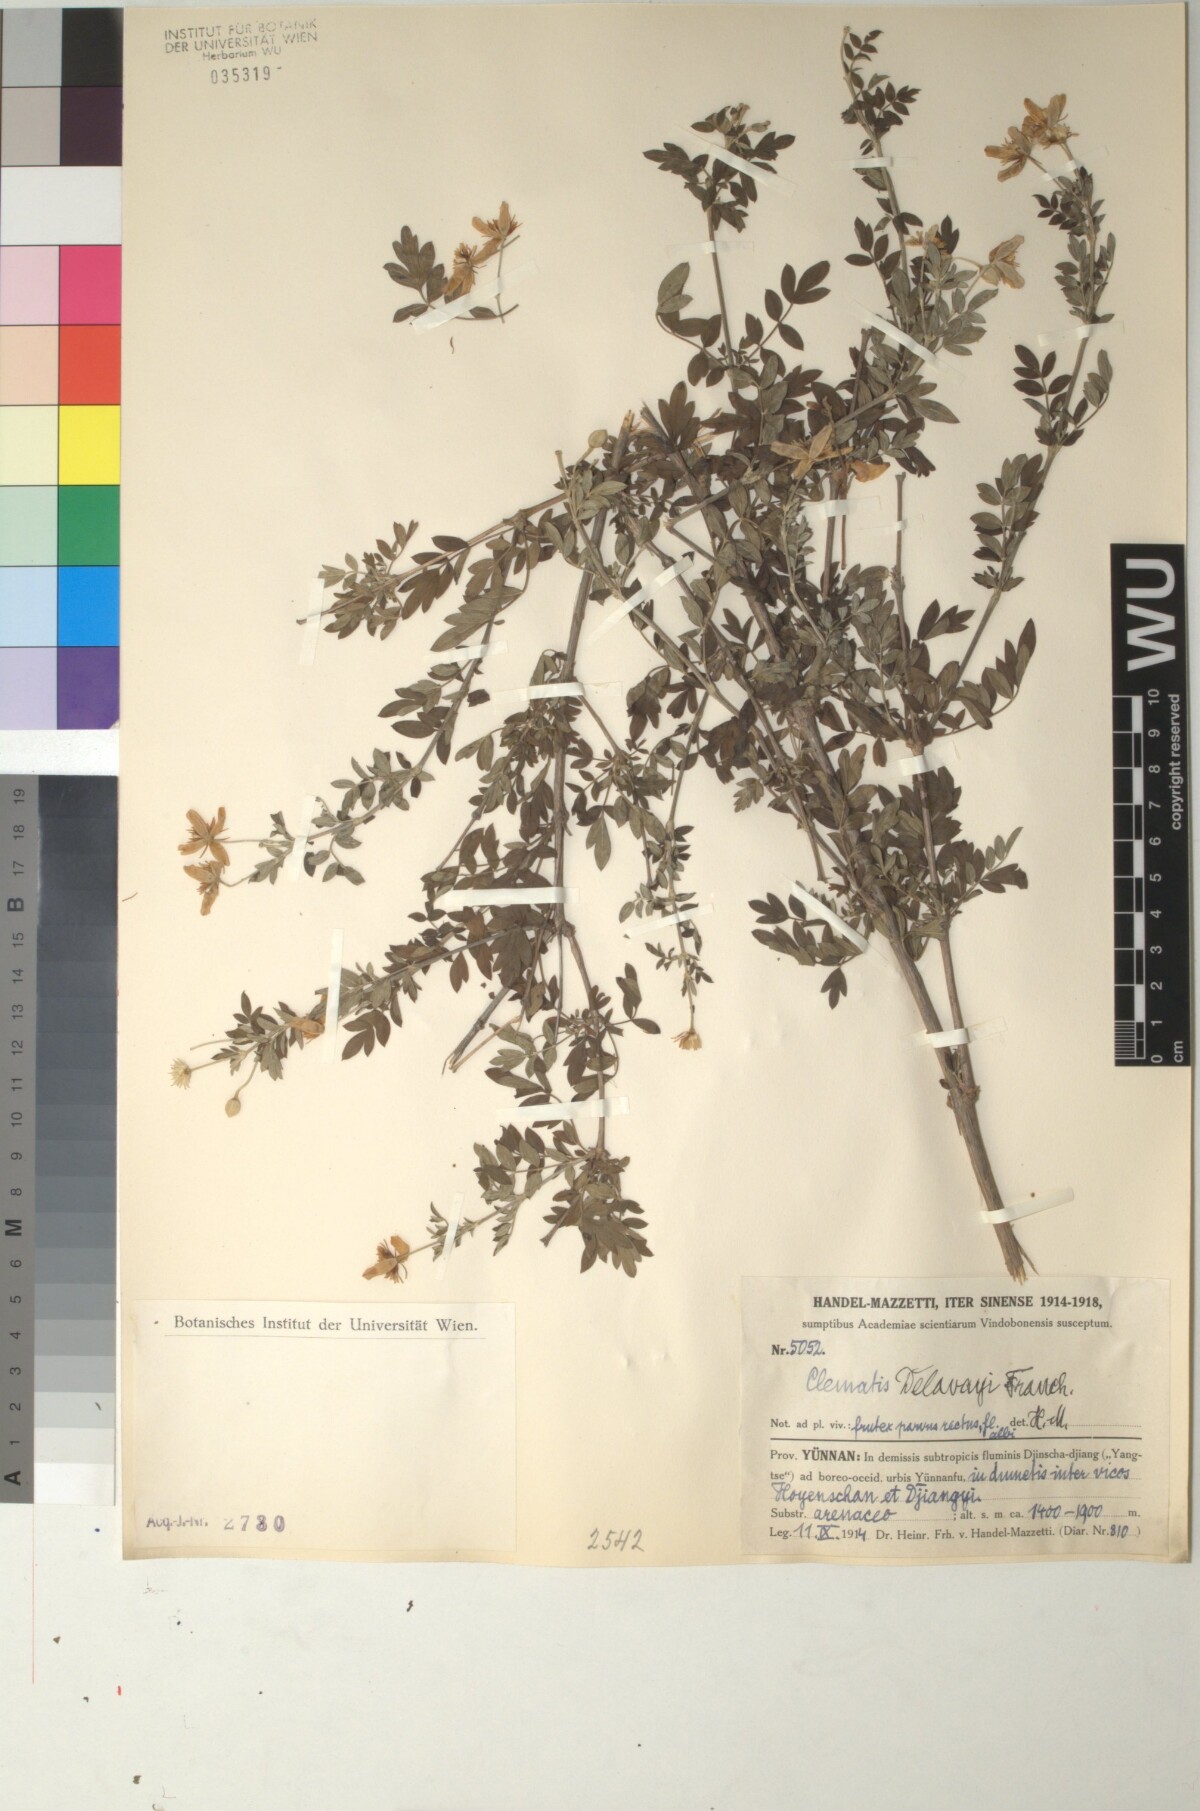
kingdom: Plantae
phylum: Tracheophyta
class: Magnoliopsida
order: Ranunculales
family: Ranunculaceae
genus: Clematis
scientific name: Clematis delavayi
